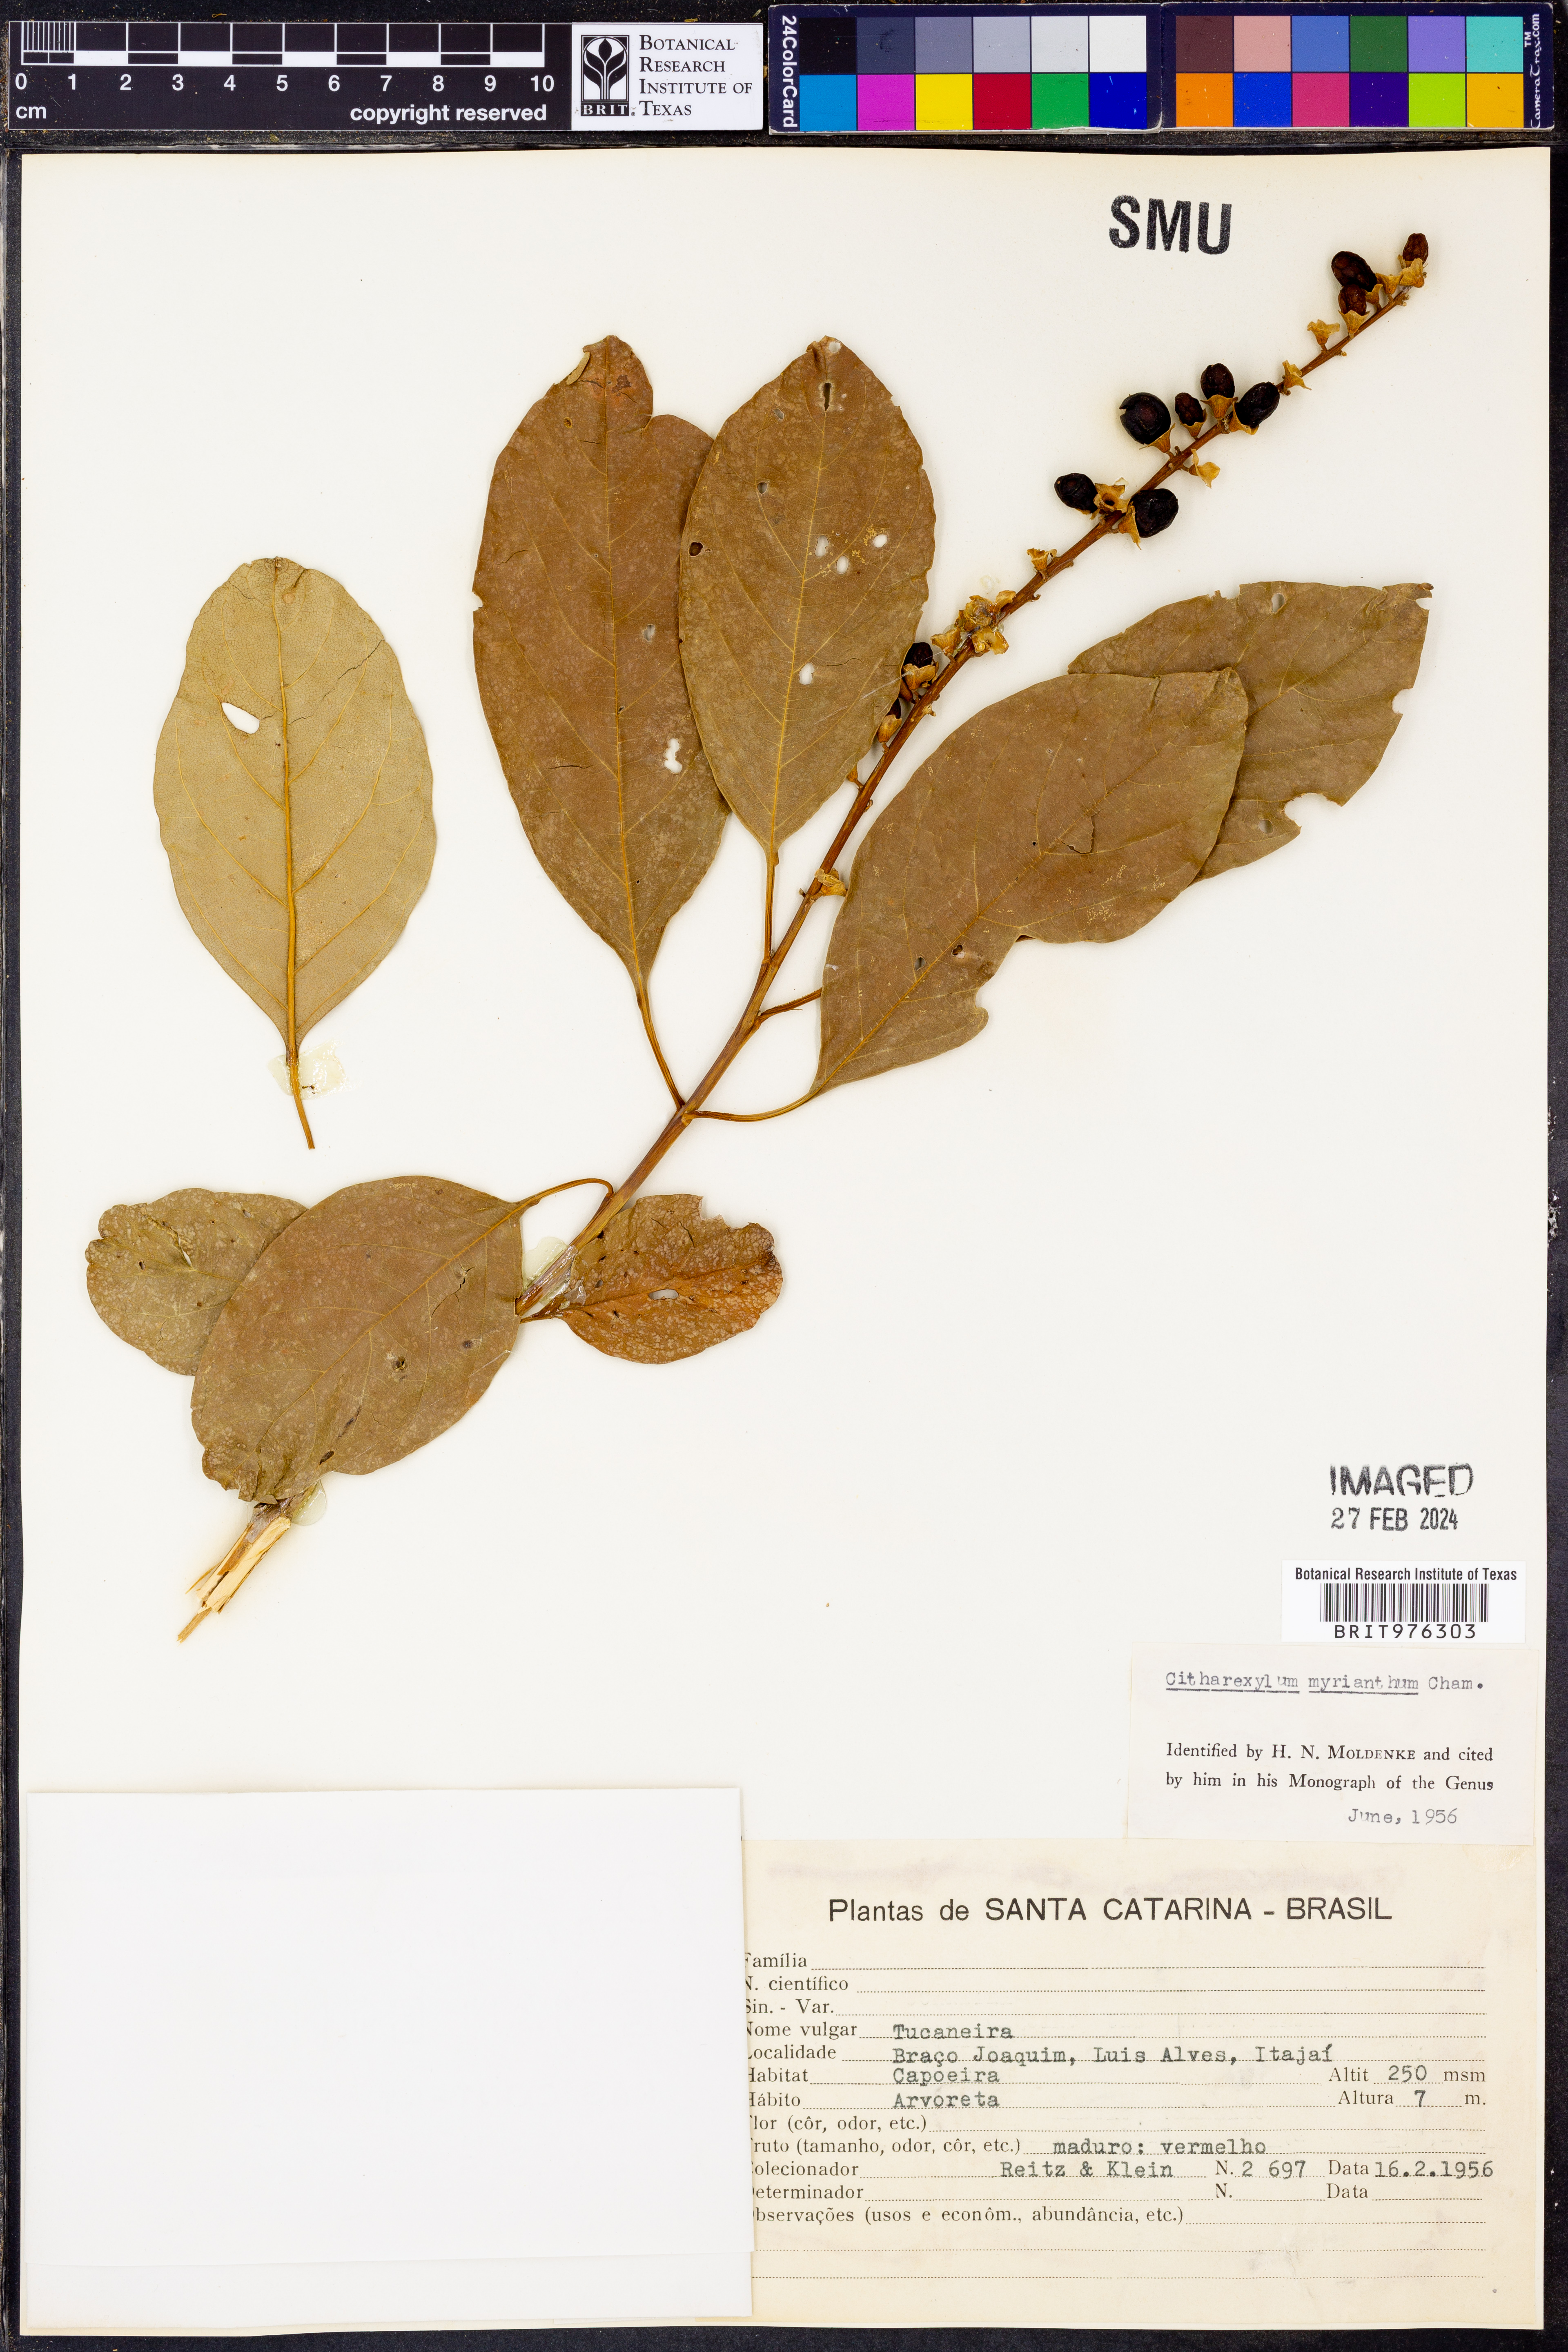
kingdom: Plantae
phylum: Tracheophyta
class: Magnoliopsida
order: Lamiales
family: Verbenaceae
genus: Citharexylum
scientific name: Citharexylum
